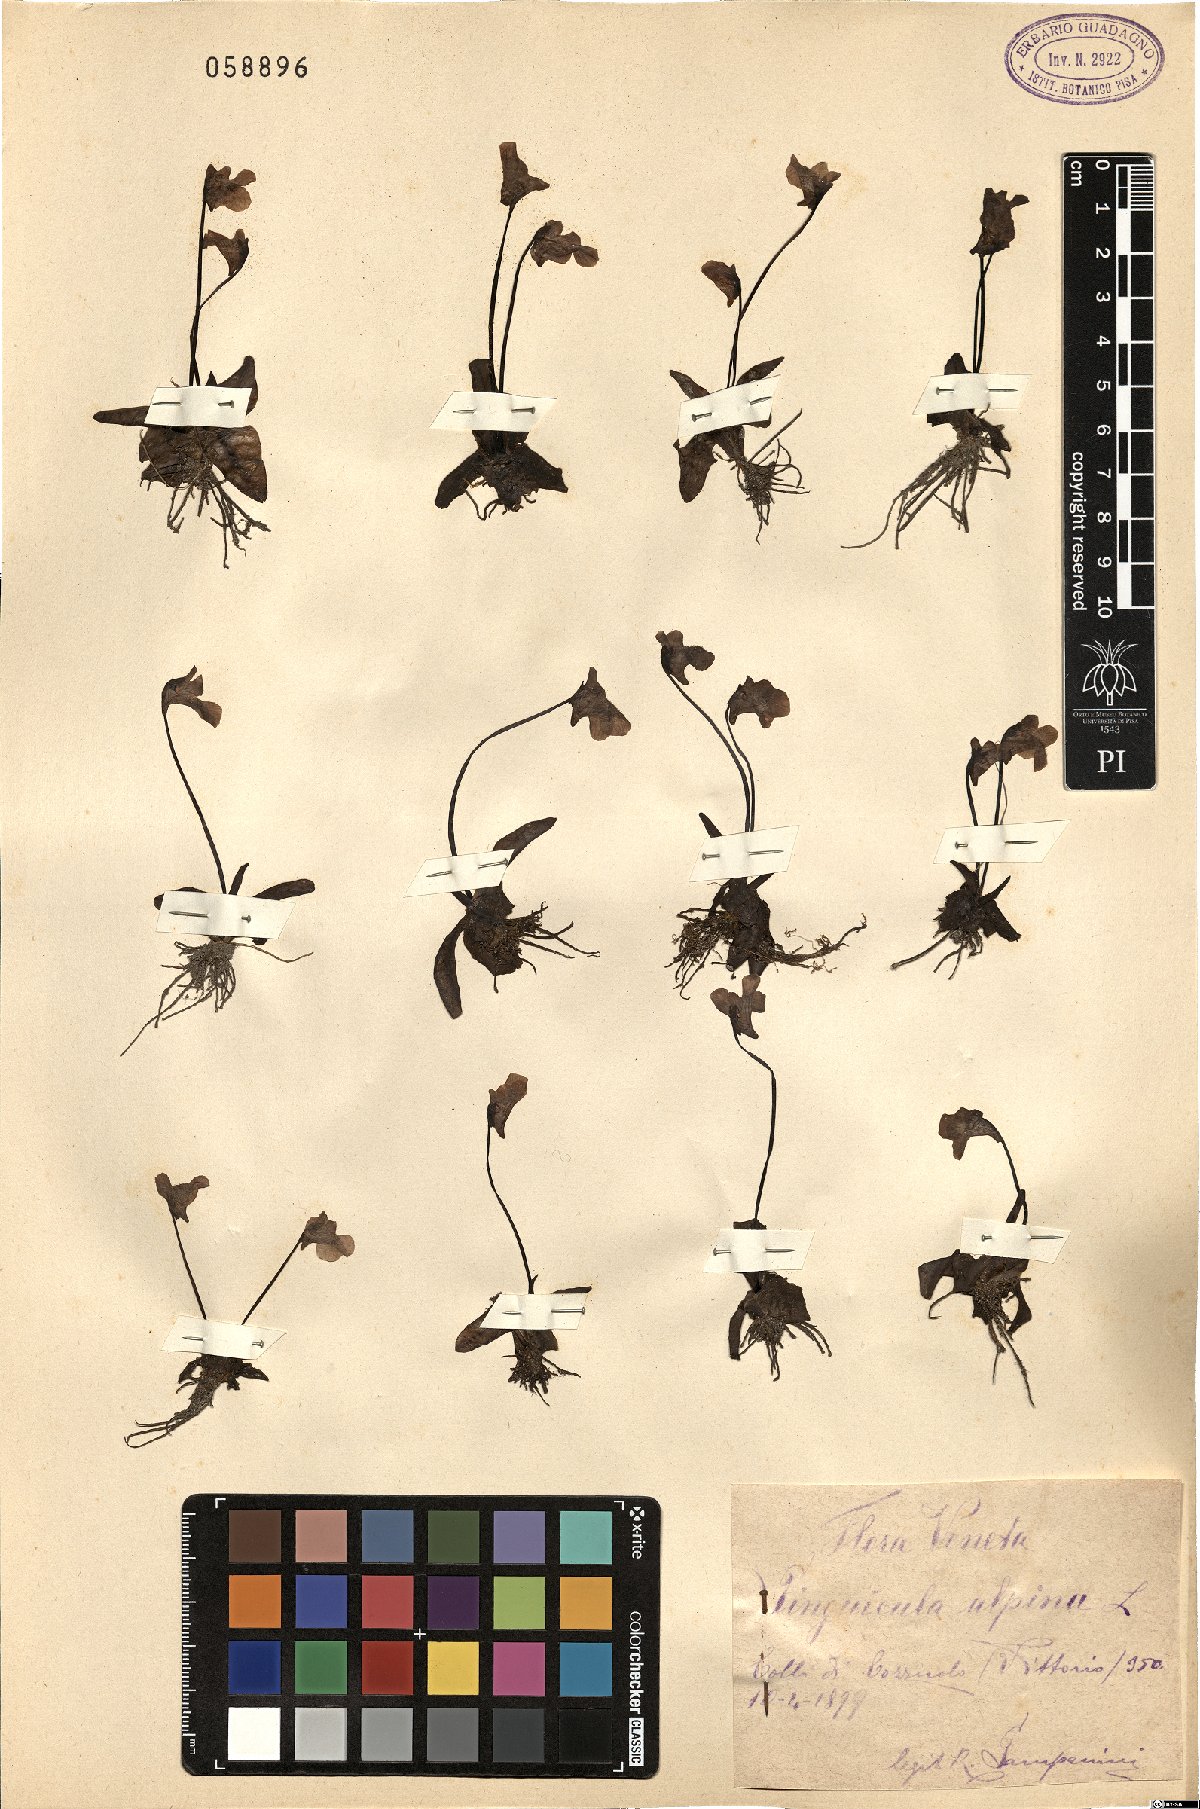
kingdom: Plantae
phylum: Tracheophyta
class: Magnoliopsida
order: Lamiales
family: Lentibulariaceae
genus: Pinguicula
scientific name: Pinguicula alpina
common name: Alpine butterwort
